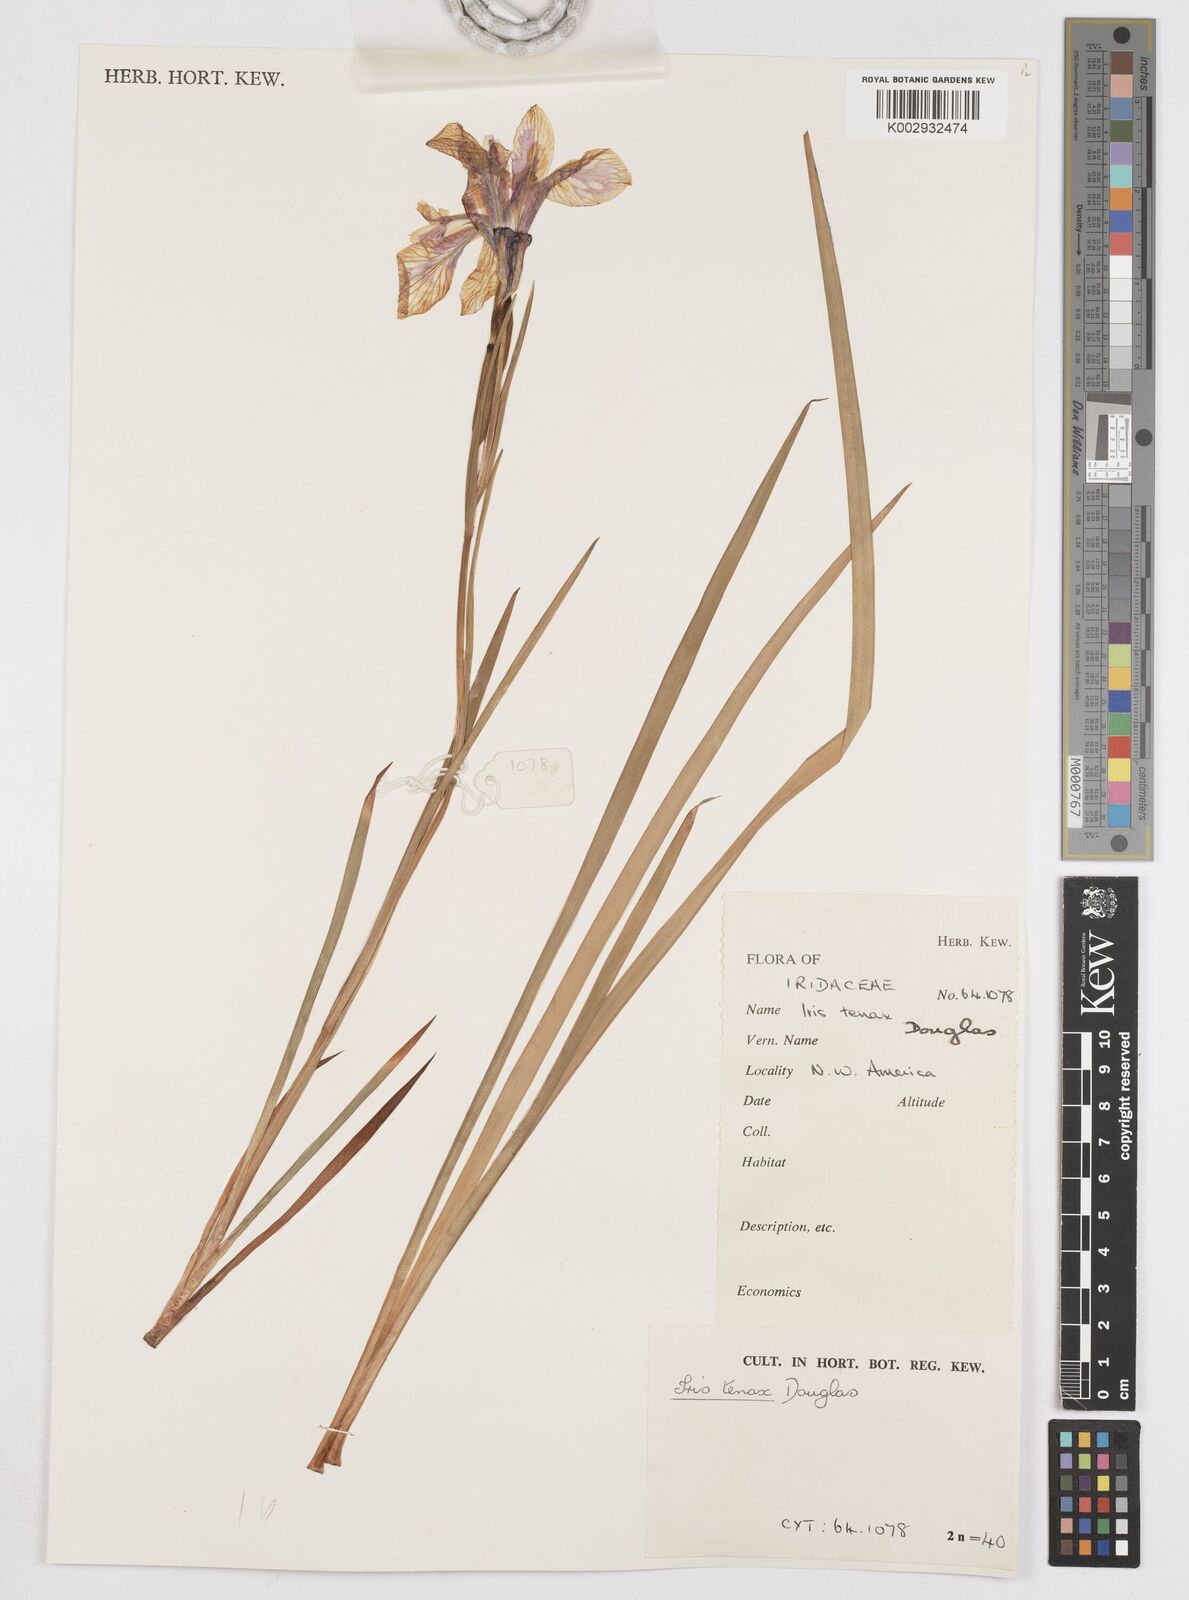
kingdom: Plantae
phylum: Tracheophyta
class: Liliopsida
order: Asparagales
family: Iridaceae
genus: Iris
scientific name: Iris tenax
